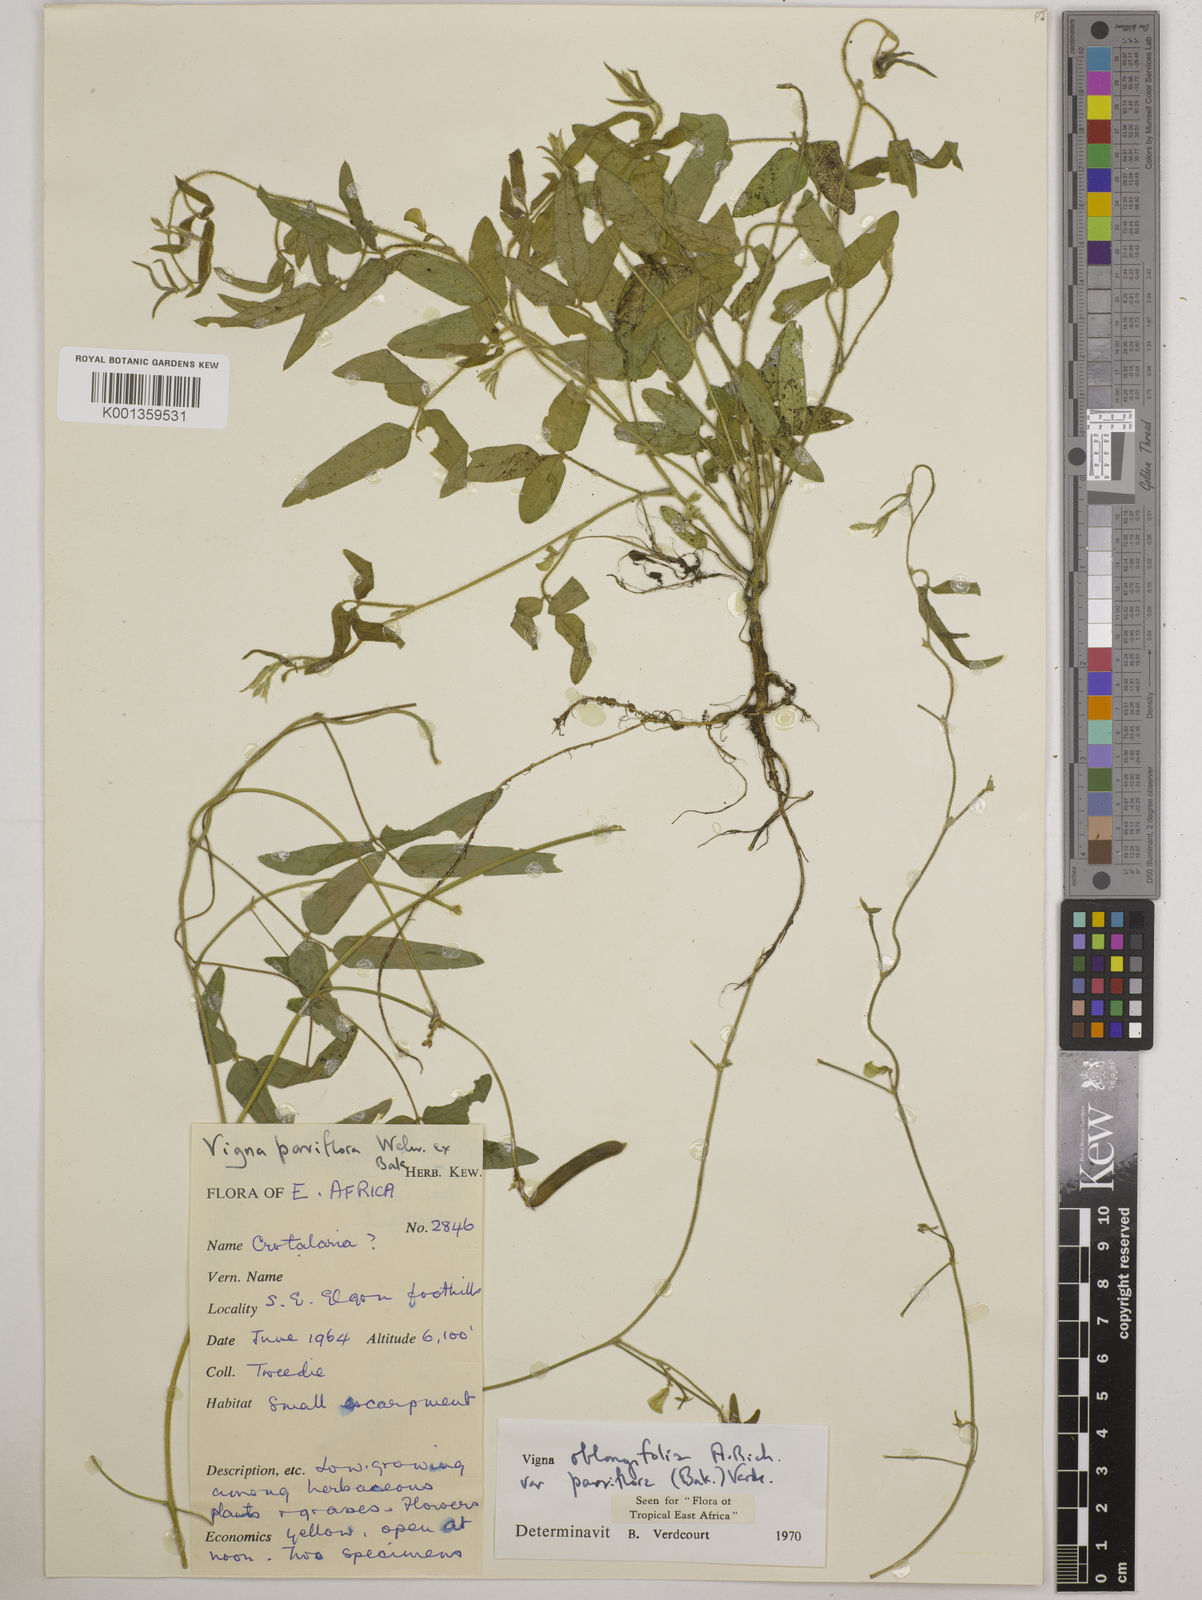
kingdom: Plantae
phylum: Tracheophyta
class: Magnoliopsida
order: Fabales
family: Fabaceae
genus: Vigna
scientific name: Vigna
